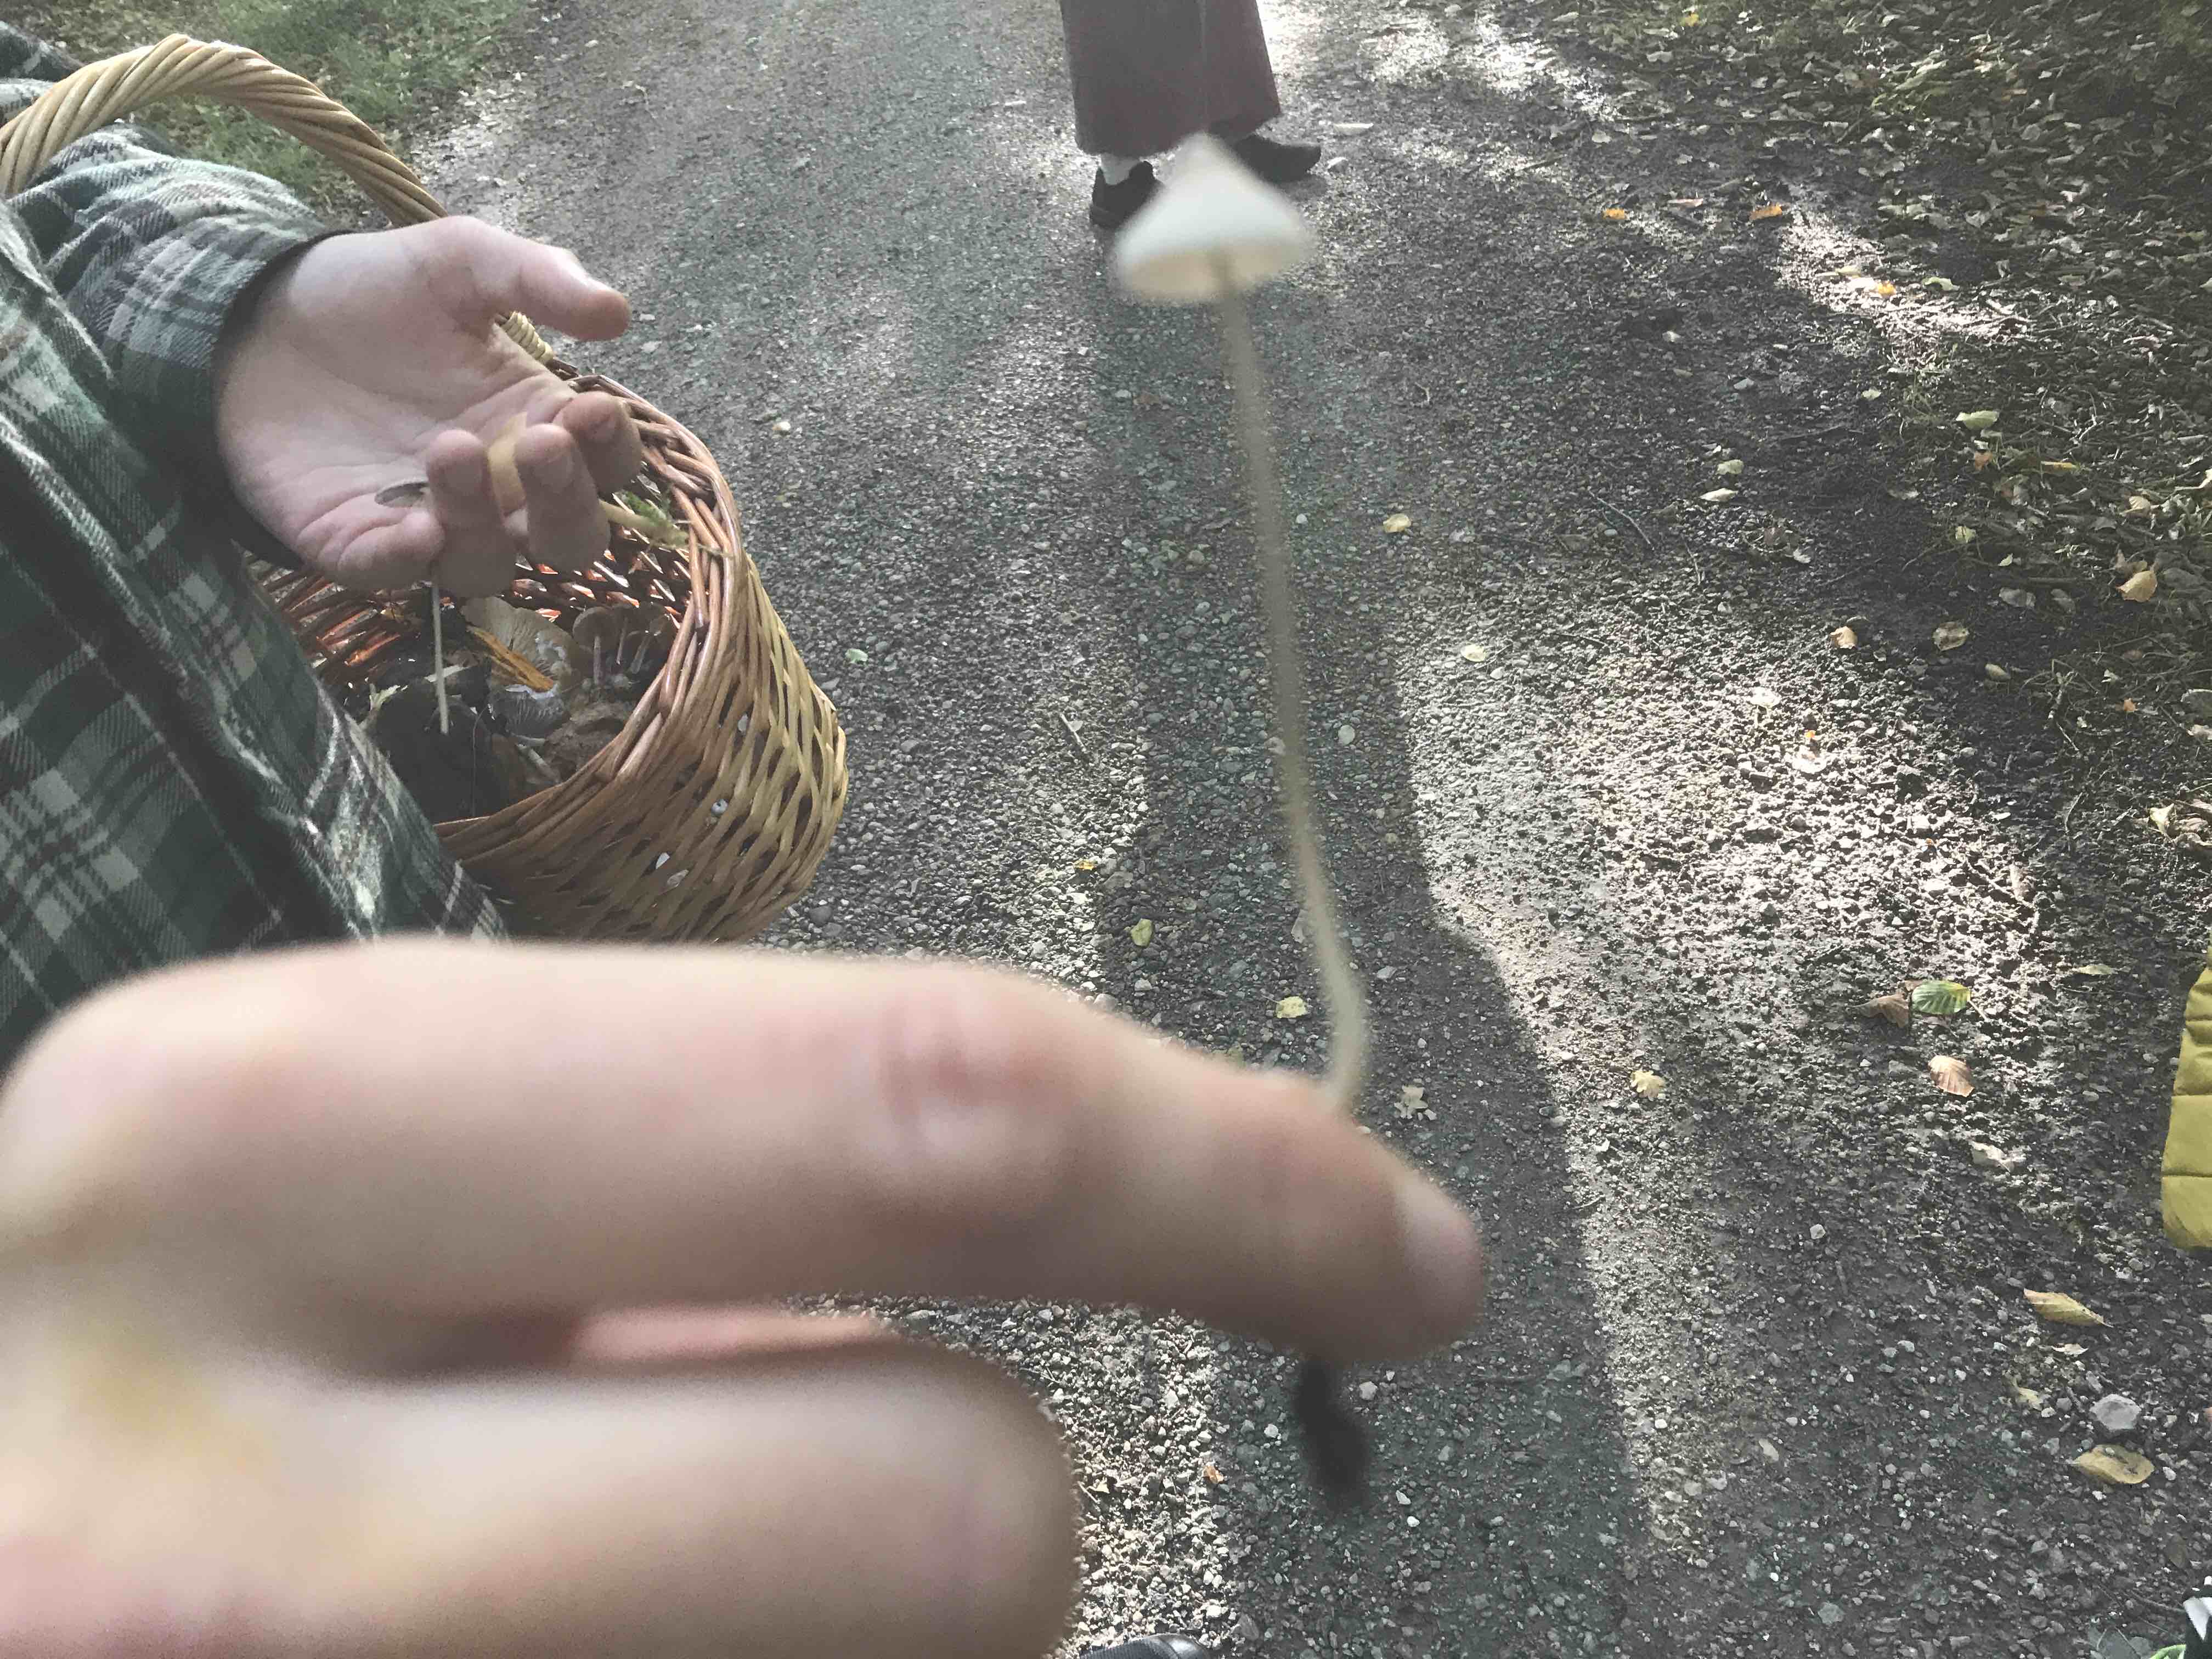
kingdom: Fungi
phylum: Basidiomycota
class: Agaricomycetes
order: Agaricales
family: Mycenaceae
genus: Mycena
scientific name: Mycena vitilis
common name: blankstokket huesvamp
